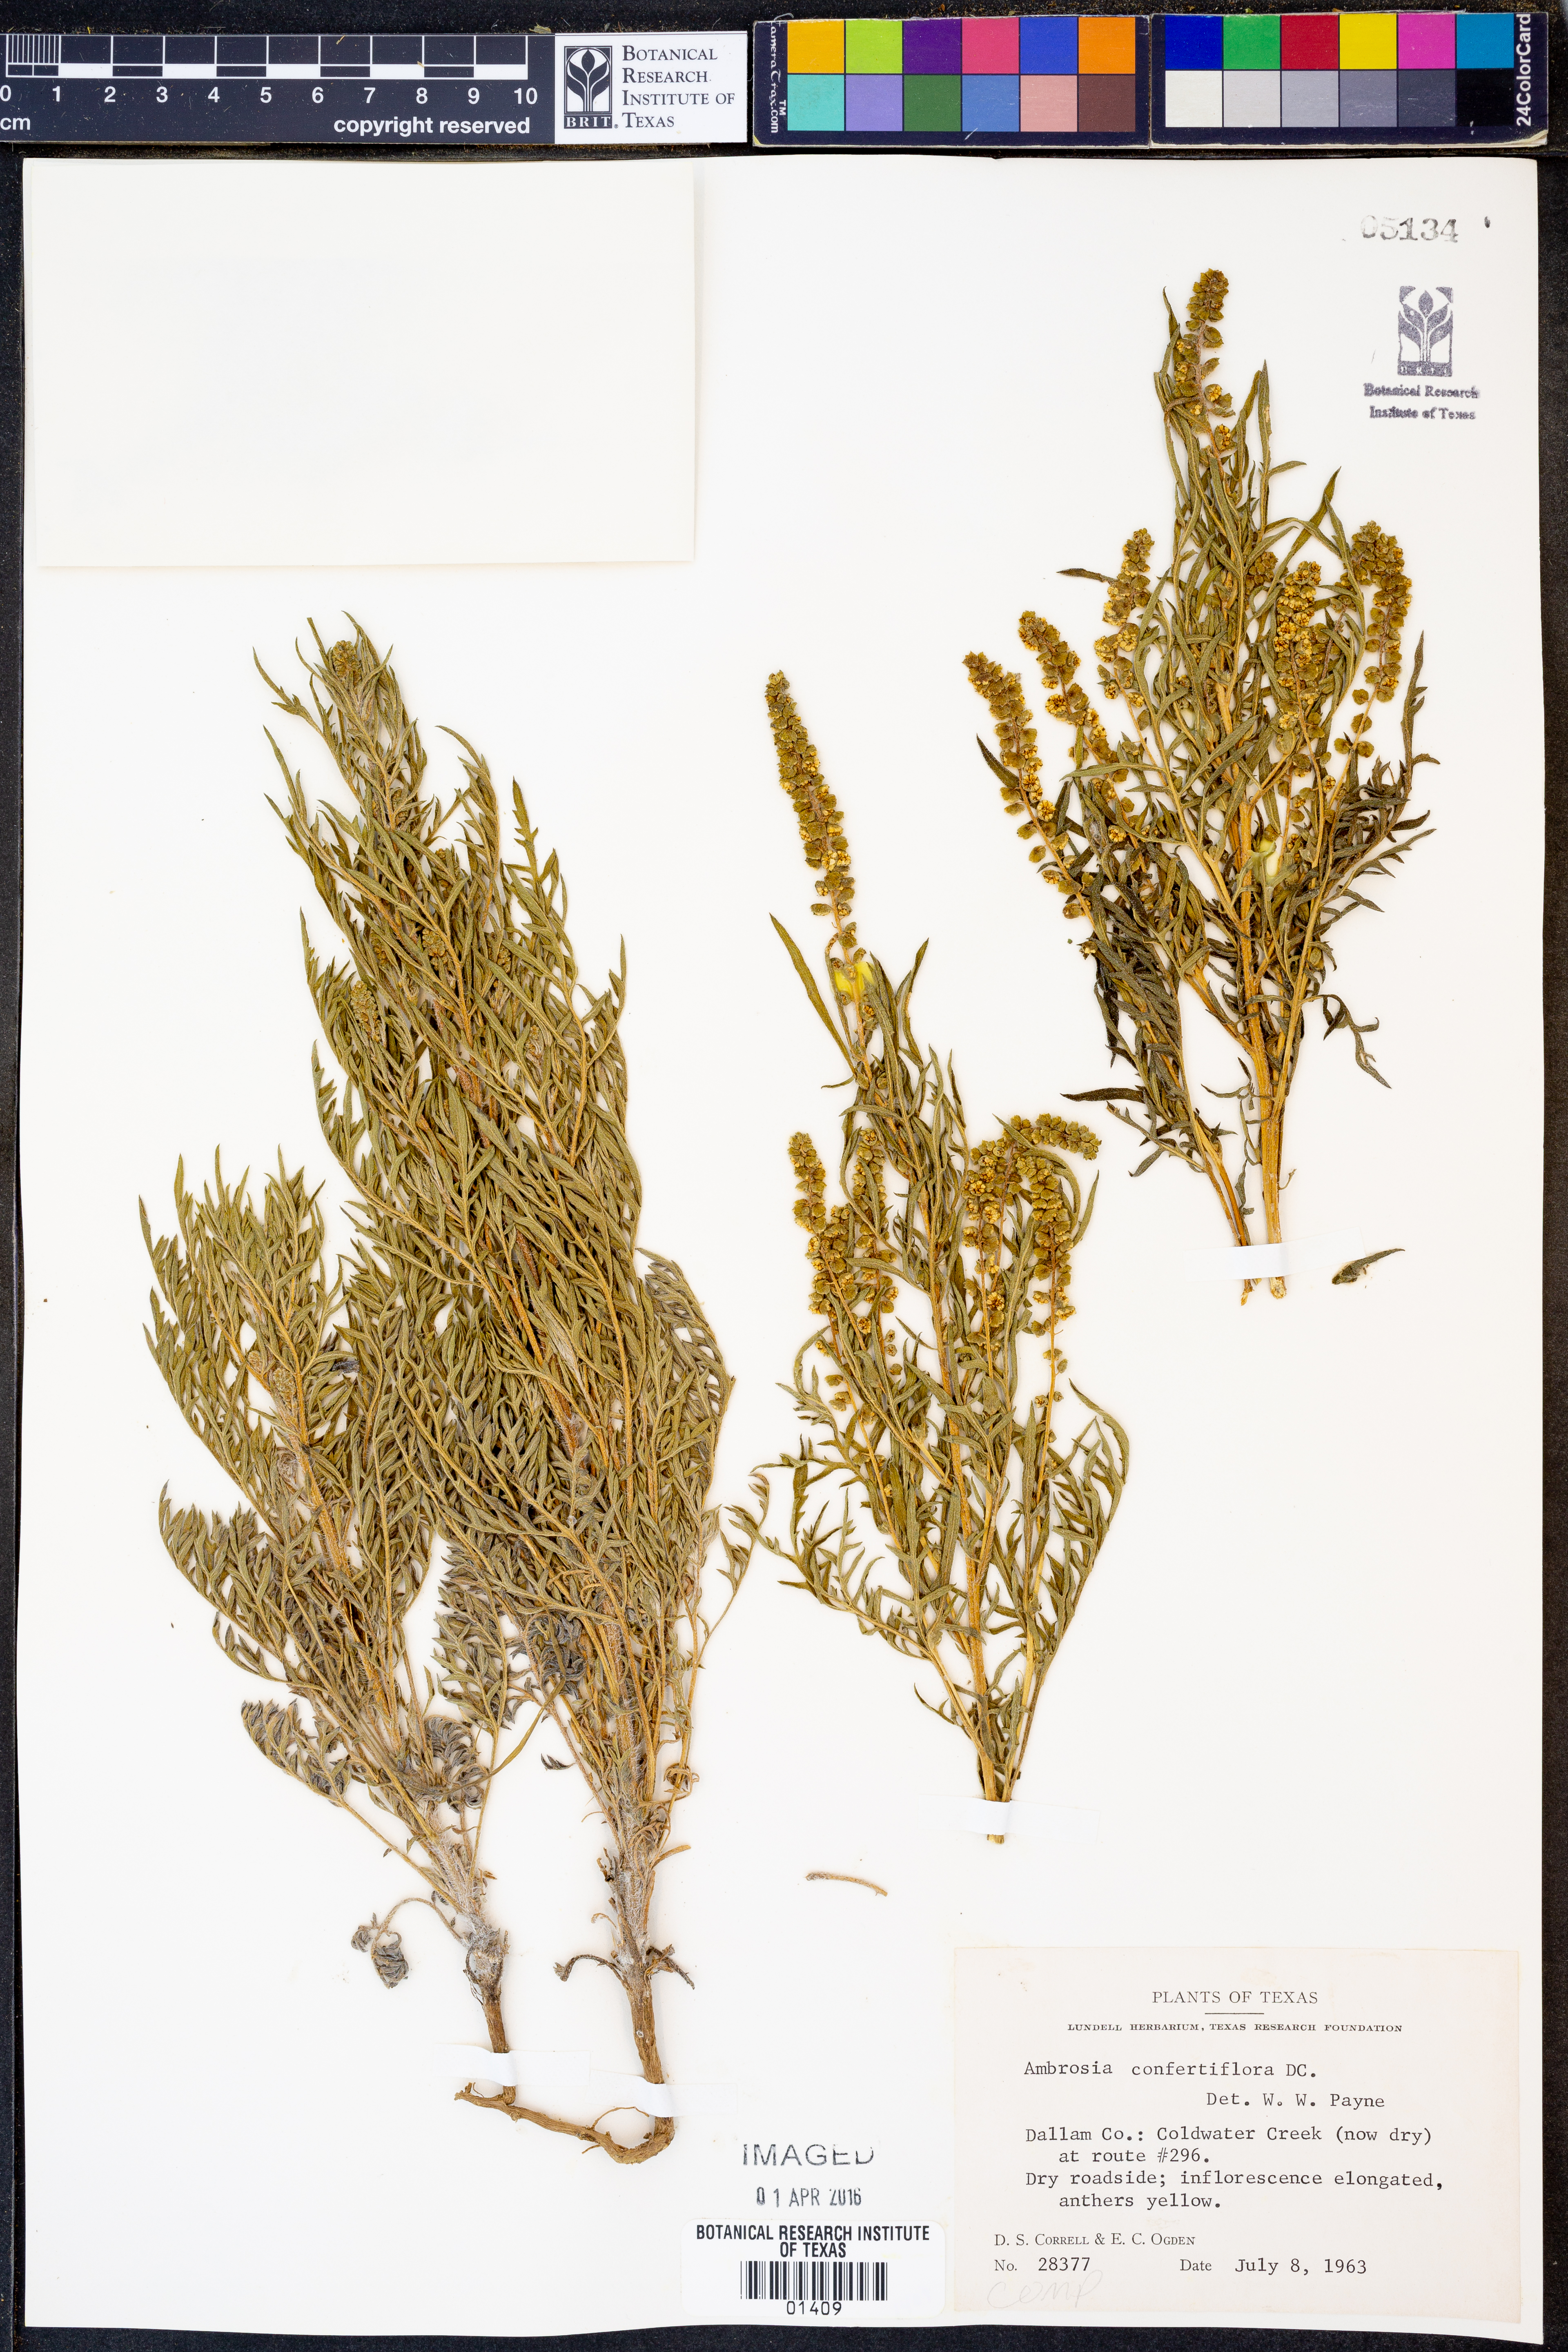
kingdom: Plantae
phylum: Tracheophyta
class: Magnoliopsida
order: Asterales
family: Asteraceae
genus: Ambrosia
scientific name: Ambrosia confertiflora
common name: Bur ragweed
